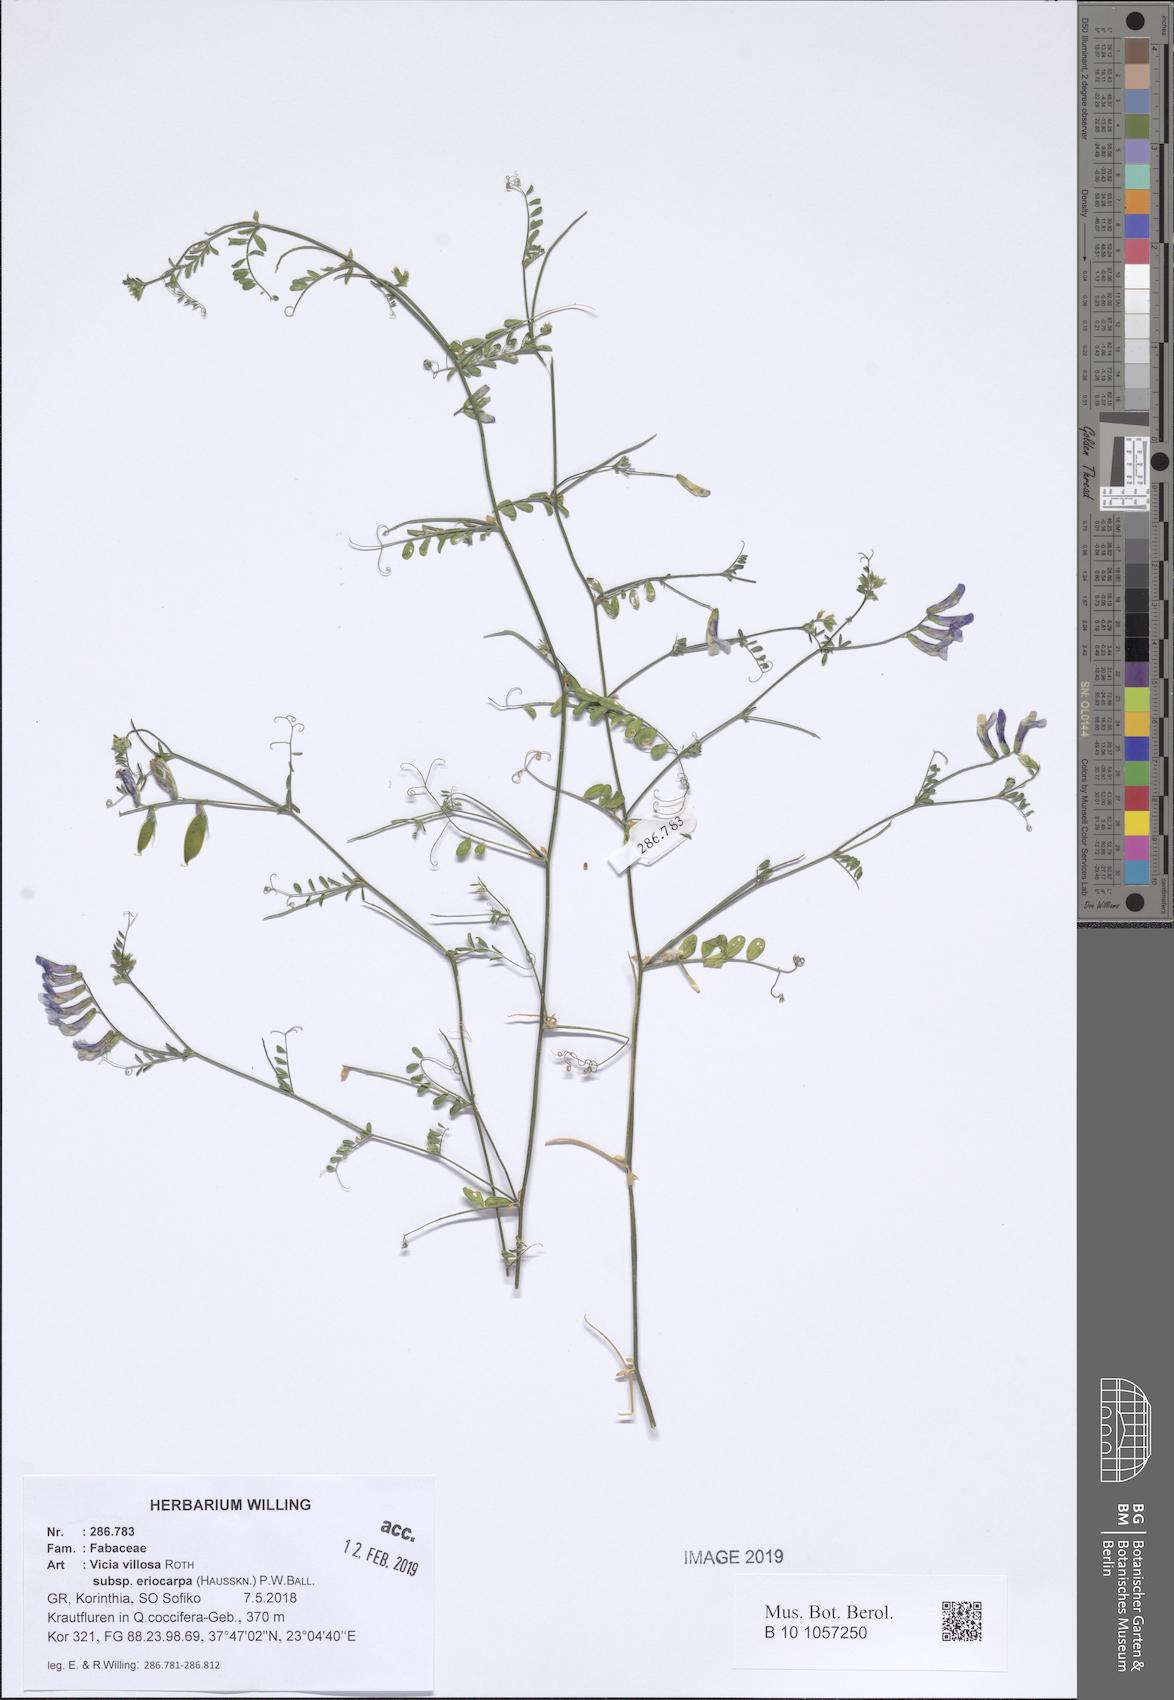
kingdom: Plantae
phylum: Tracheophyta
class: Magnoliopsida
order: Fabales
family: Fabaceae
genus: Vicia
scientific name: Vicia eriocarpa
